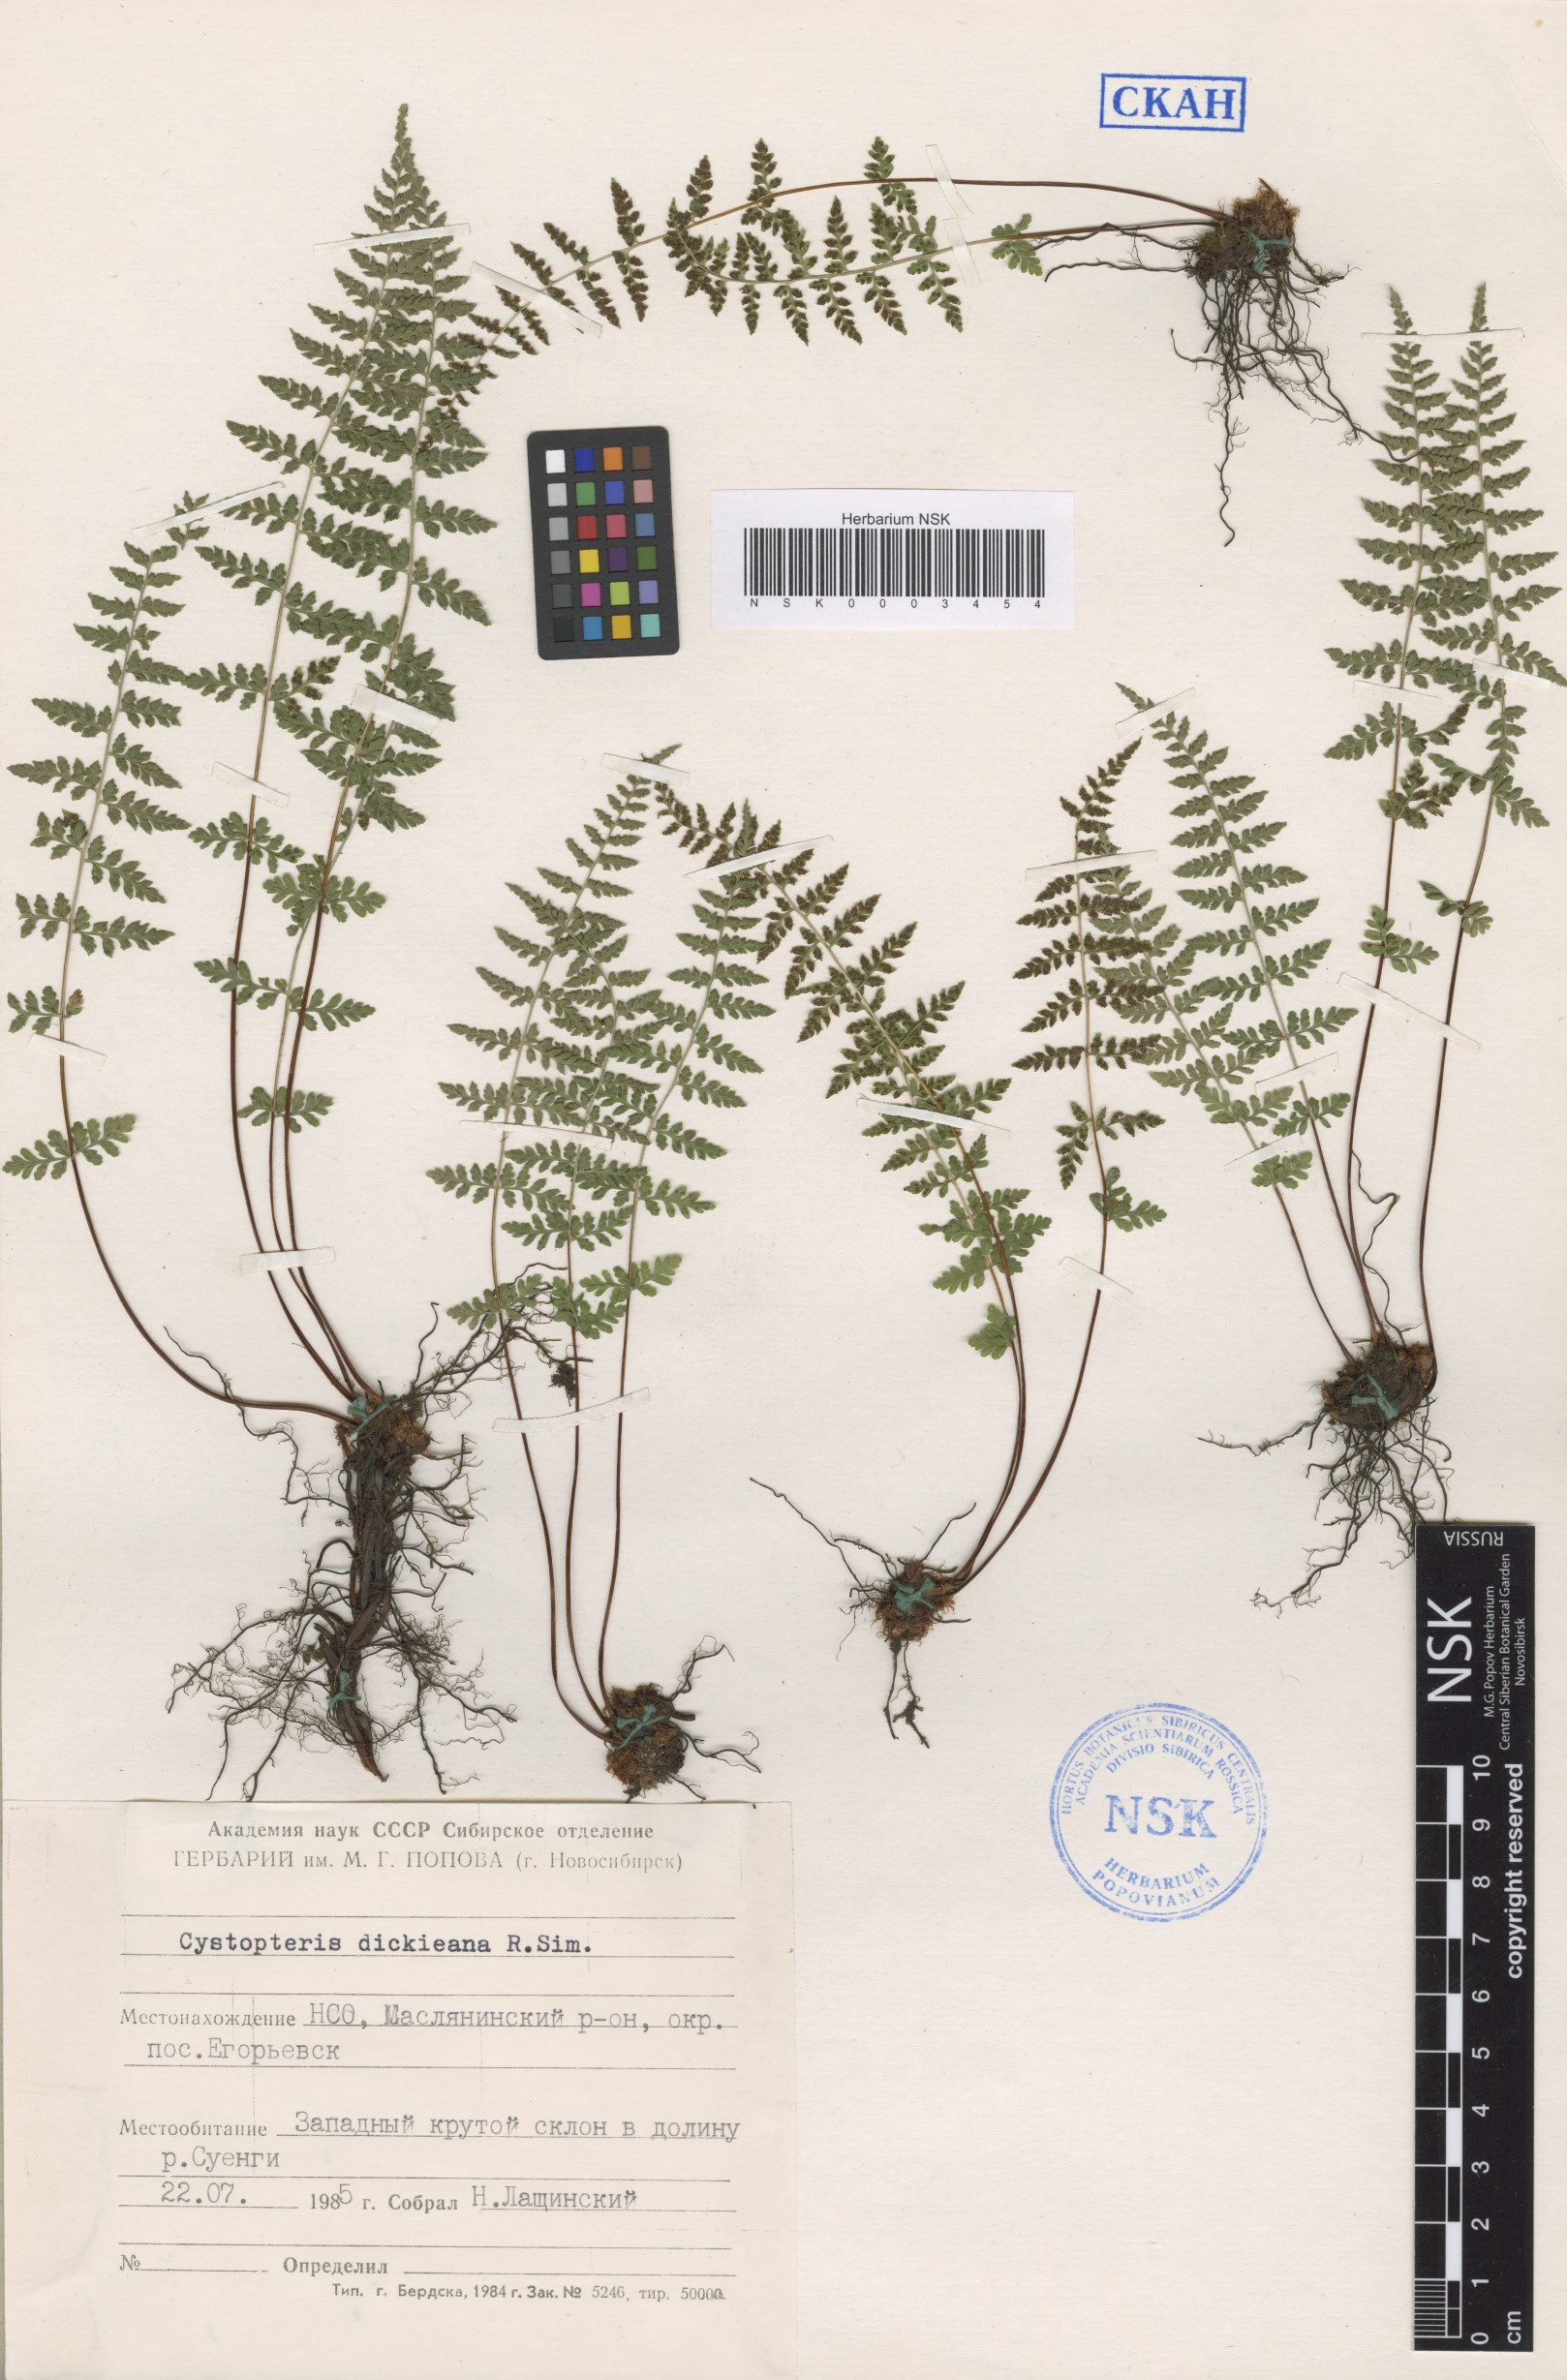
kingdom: Plantae
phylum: Tracheophyta
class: Polypodiopsida
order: Polypodiales
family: Cystopteridaceae
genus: Cystopteris
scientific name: Cystopteris dickieana
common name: Dickie's bladder-fern
